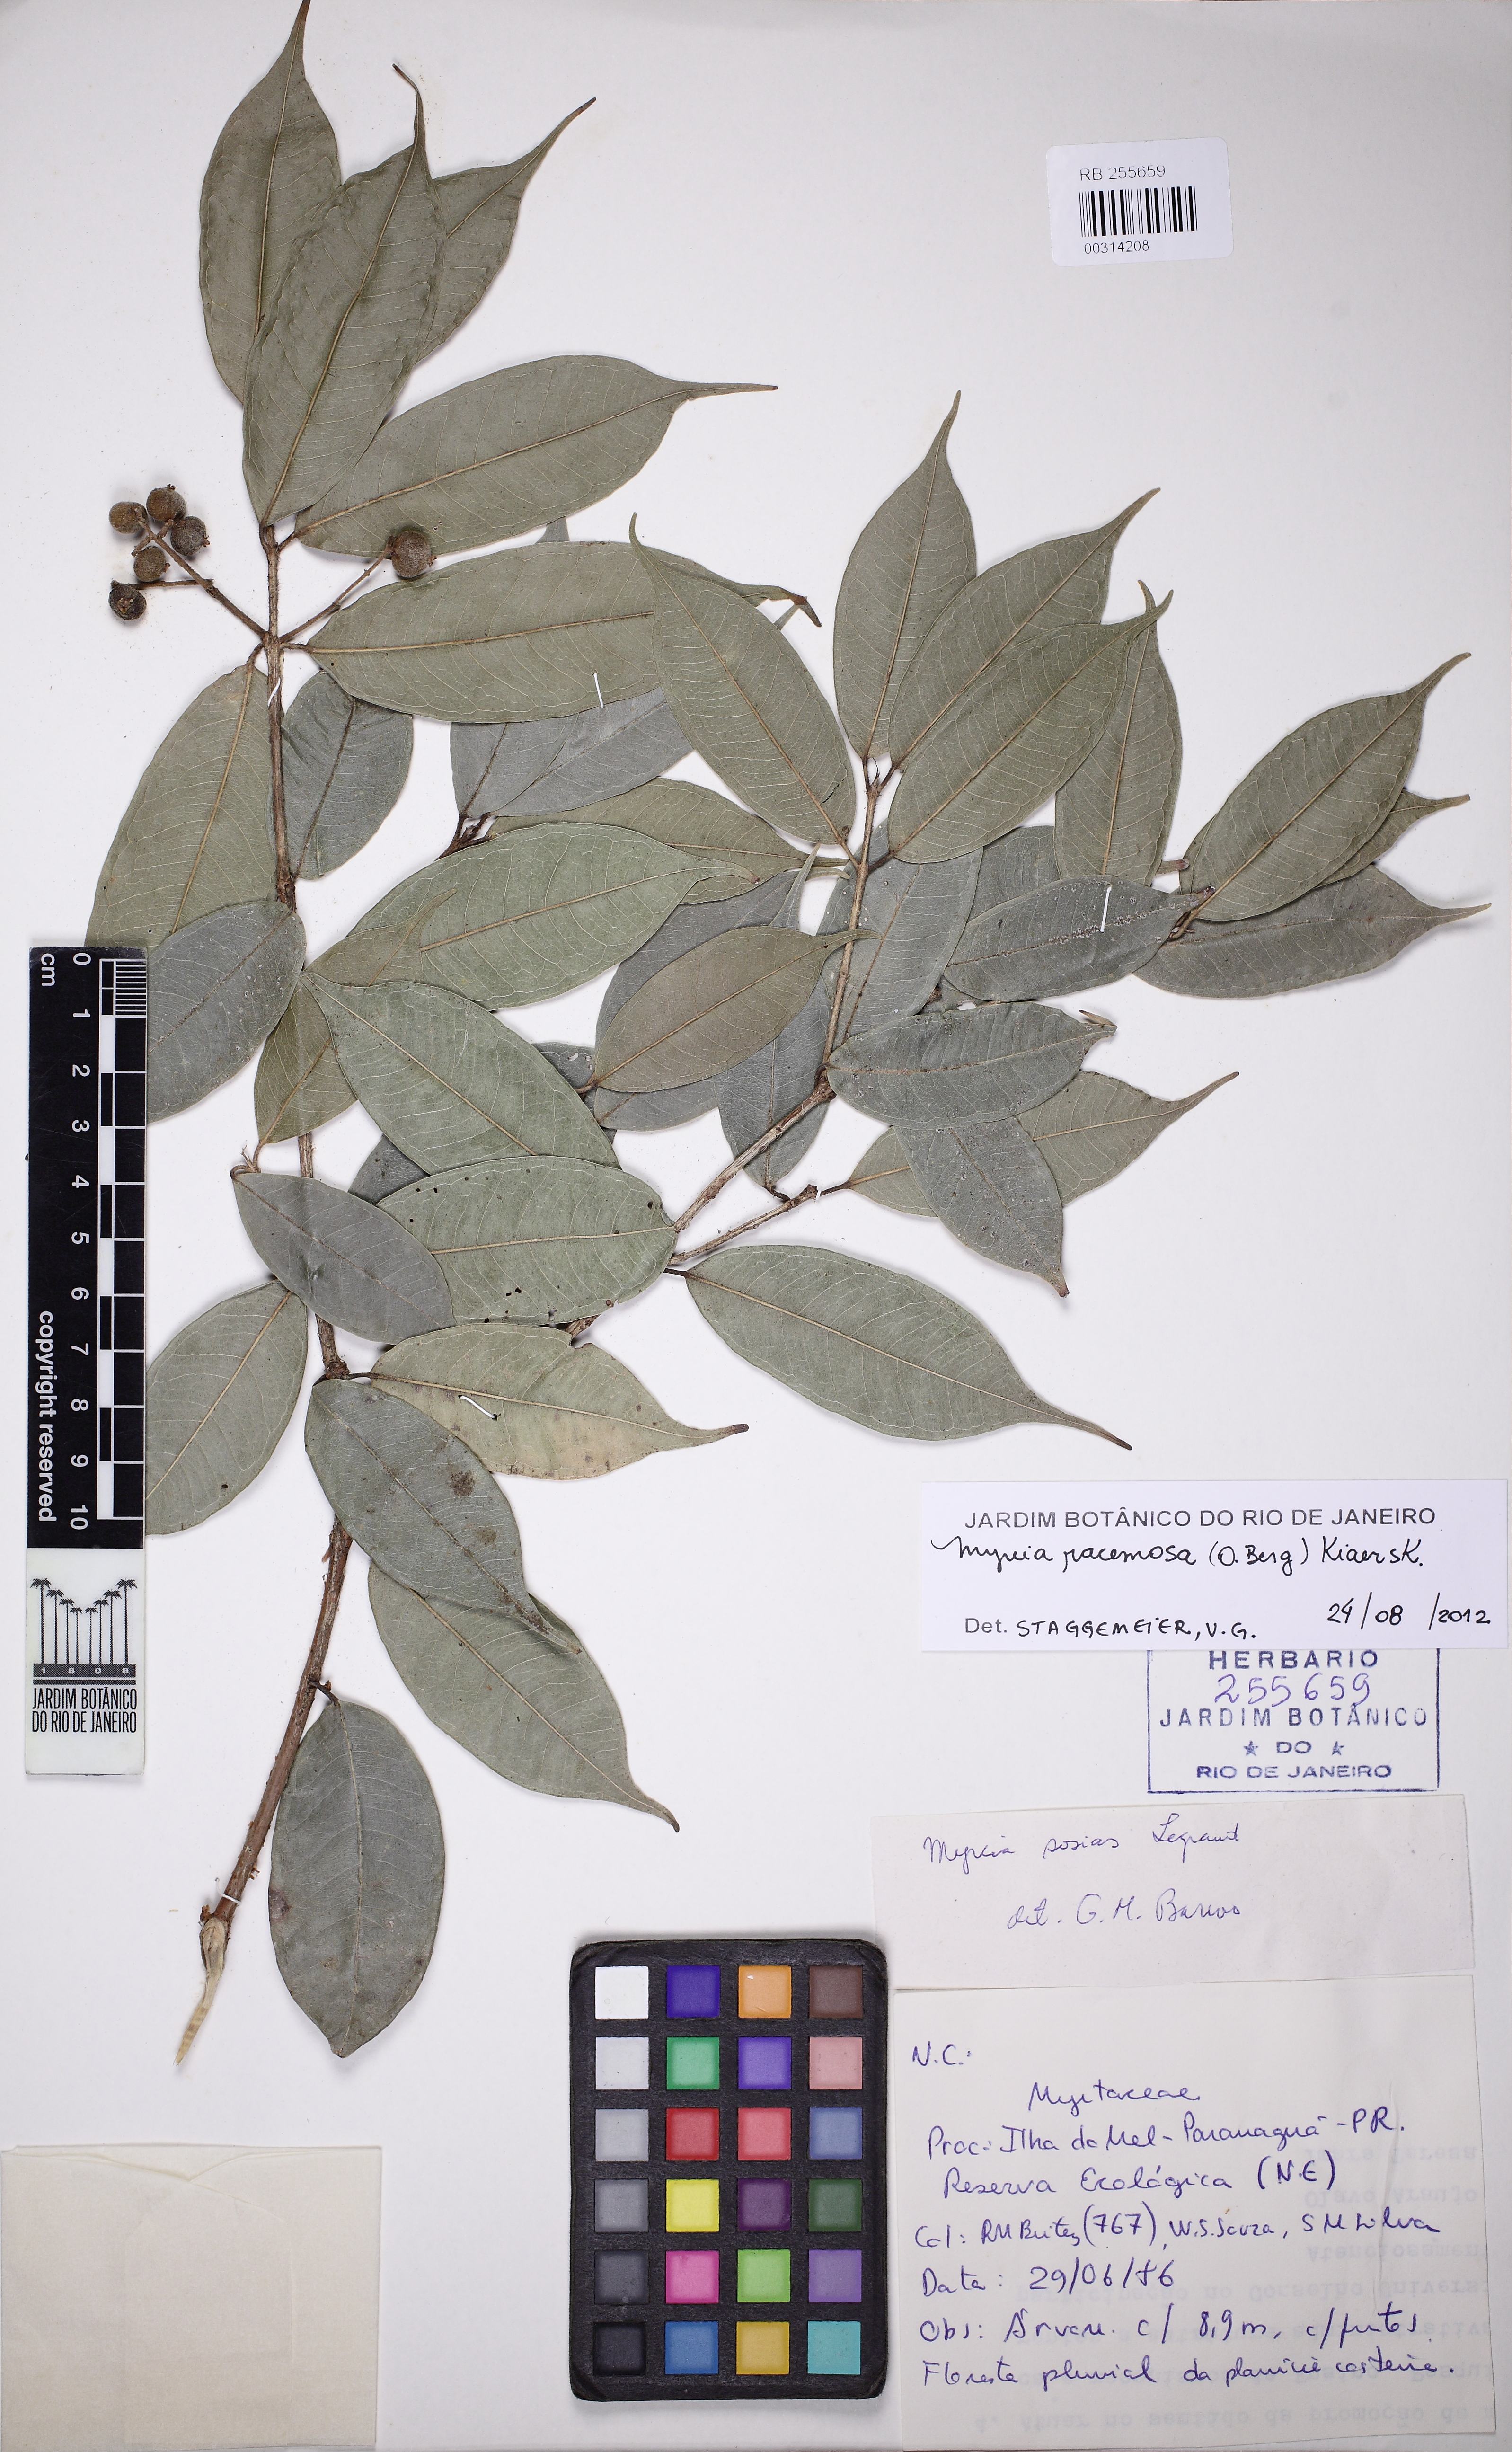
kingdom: Plantae
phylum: Tracheophyta
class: Magnoliopsida
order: Myrtales
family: Myrtaceae
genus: Myrcia
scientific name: Myrcia racemosa
